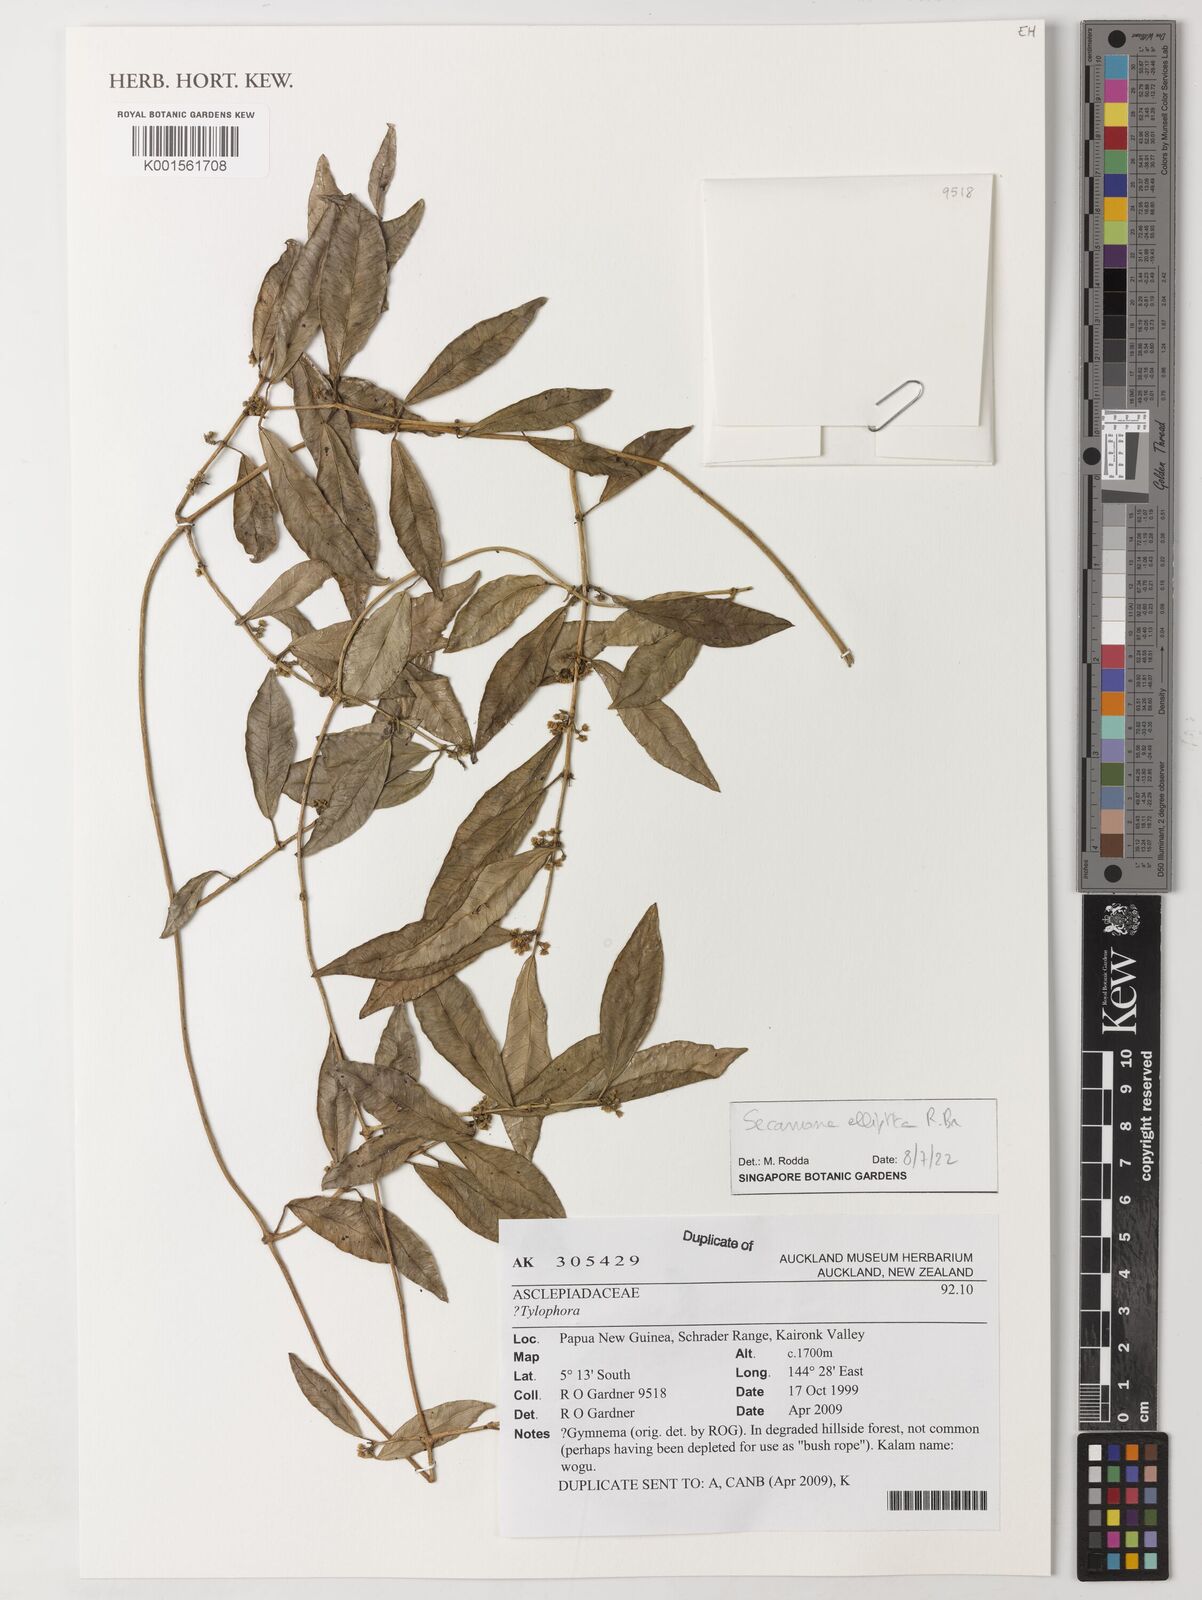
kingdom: Plantae
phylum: Tracheophyta
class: Magnoliopsida
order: Gentianales
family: Apocynaceae
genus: Secamone
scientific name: Secamone elliptica
